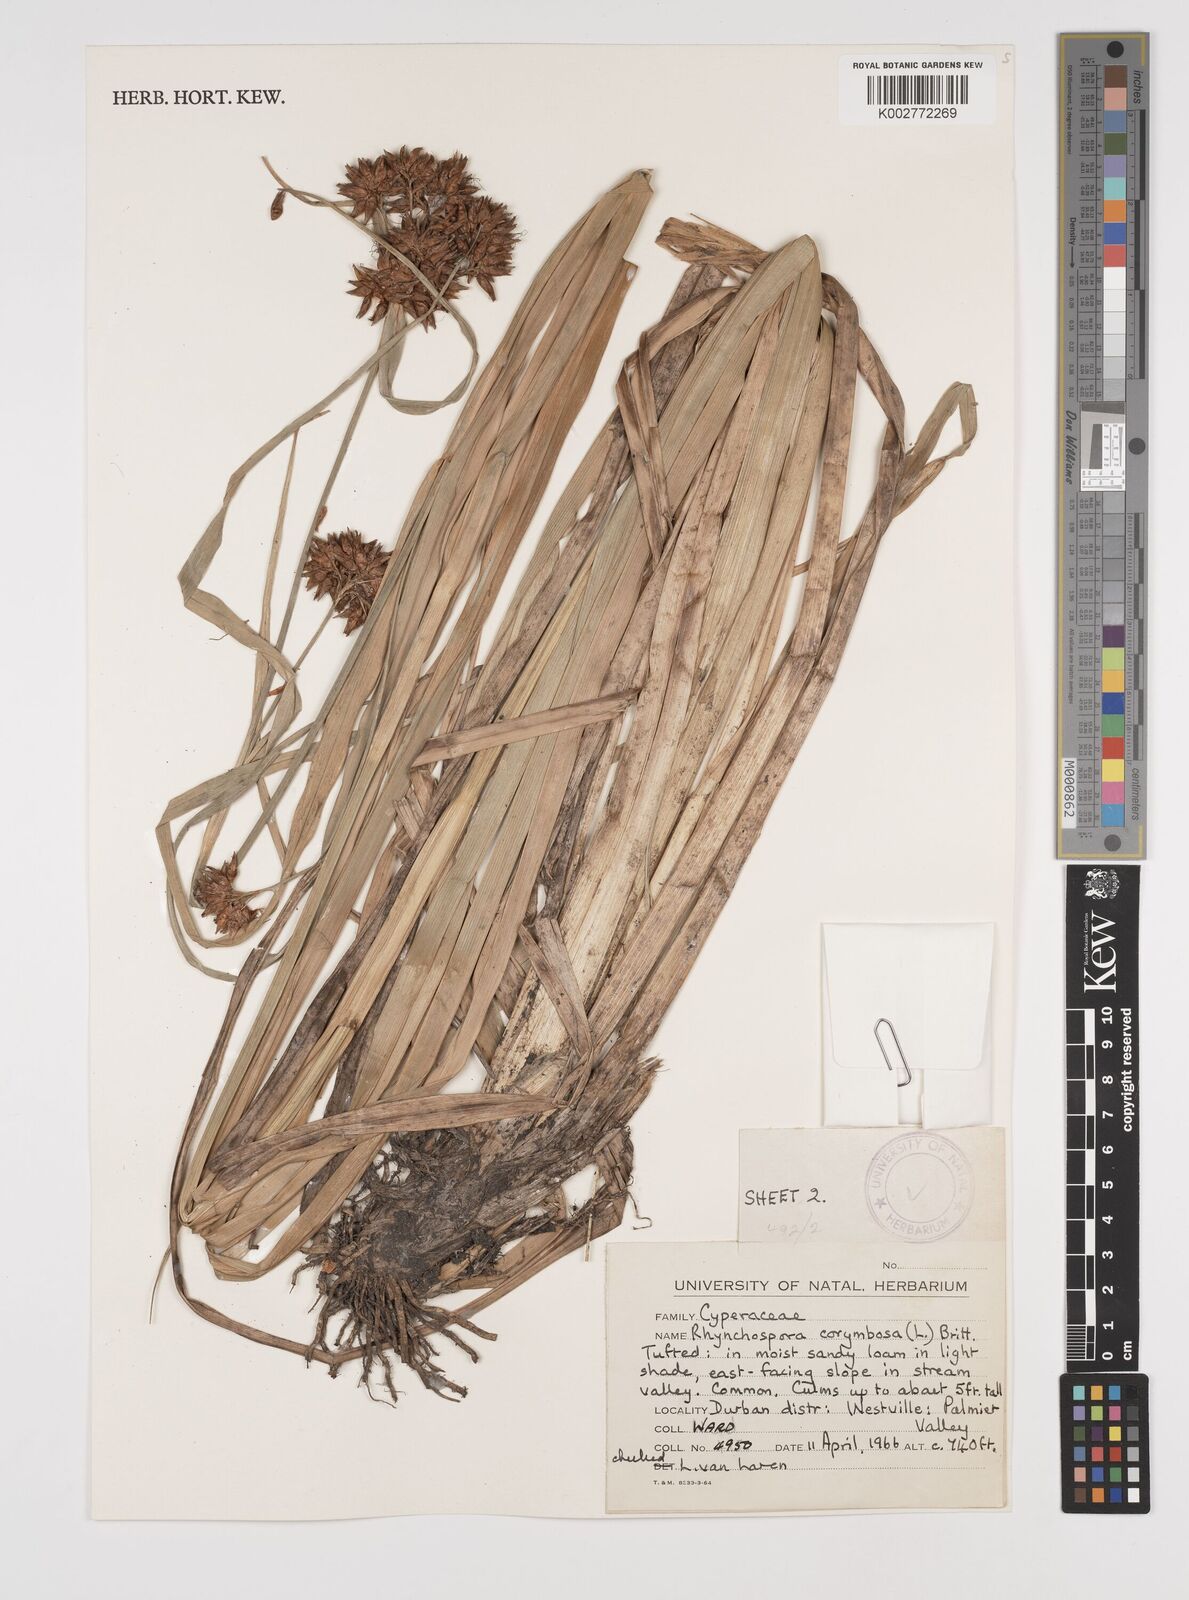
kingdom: Plantae
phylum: Tracheophyta
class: Liliopsida
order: Poales
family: Cyperaceae
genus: Rhynchospora
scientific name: Rhynchospora corymbosa
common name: Golden beak sedge
